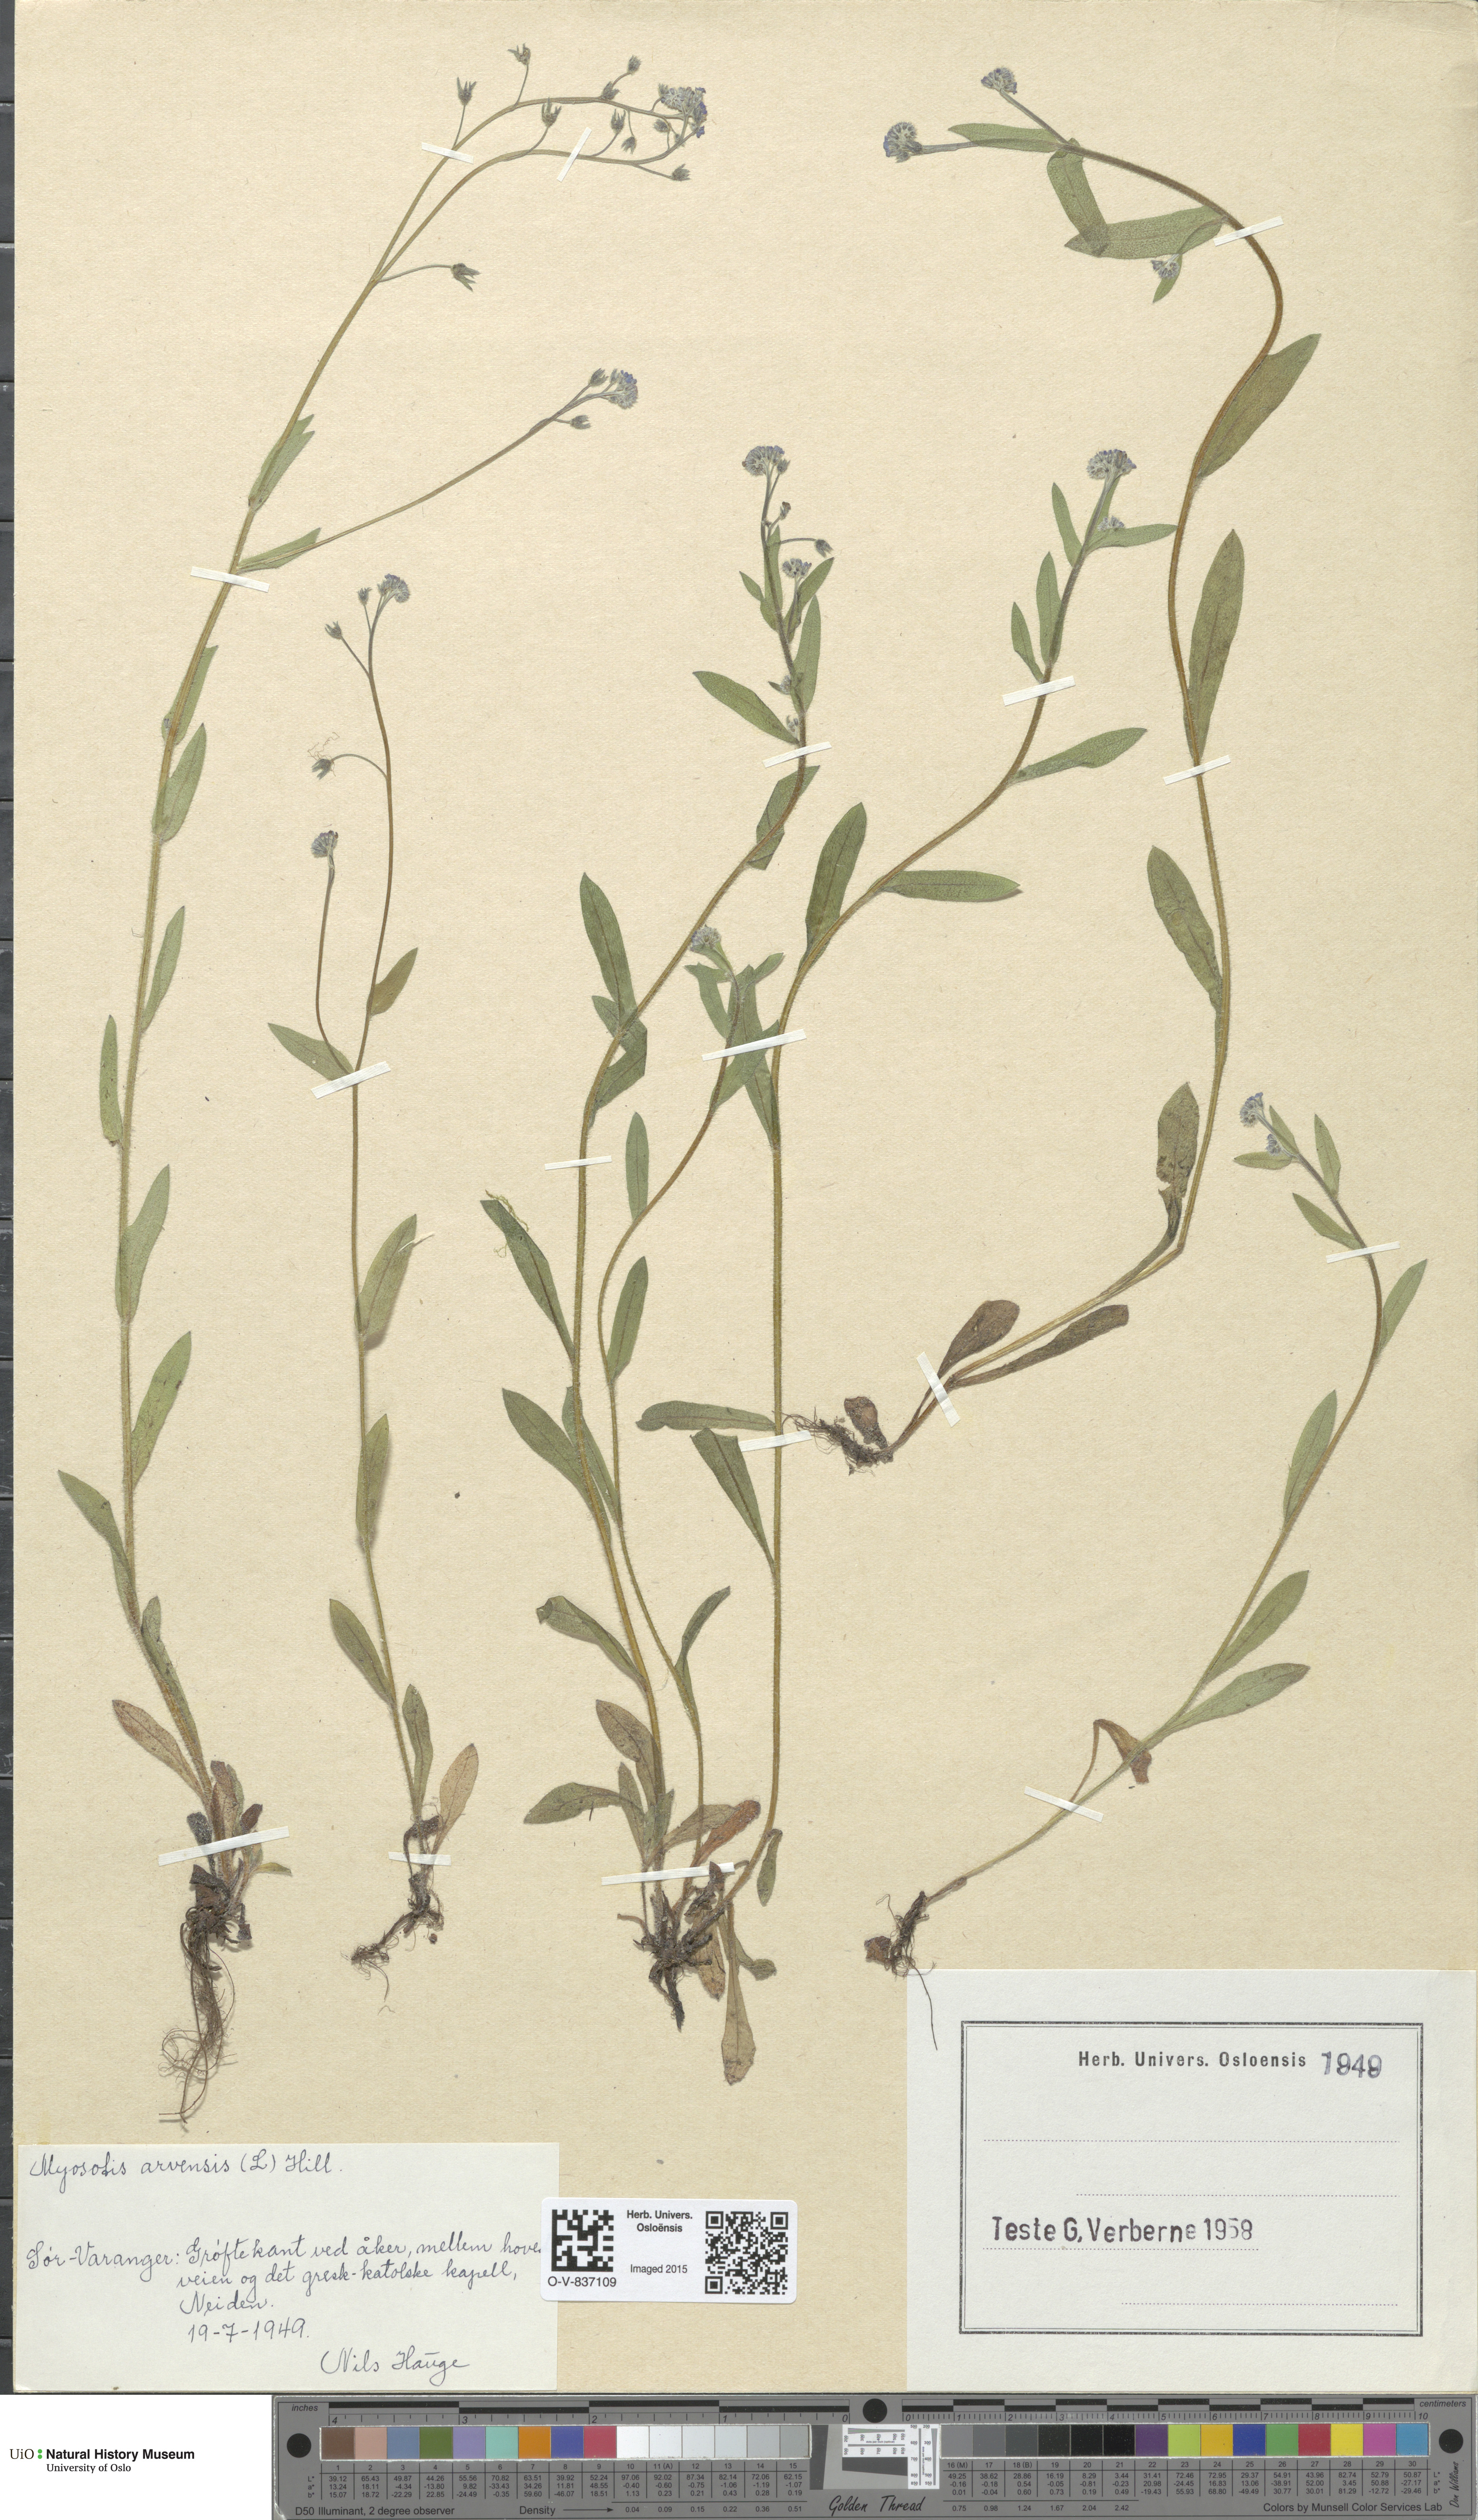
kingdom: Plantae
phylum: Tracheophyta
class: Magnoliopsida
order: Boraginales
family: Boraginaceae
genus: Myosotis
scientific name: Myosotis arvensis
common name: Field forget-me-not
